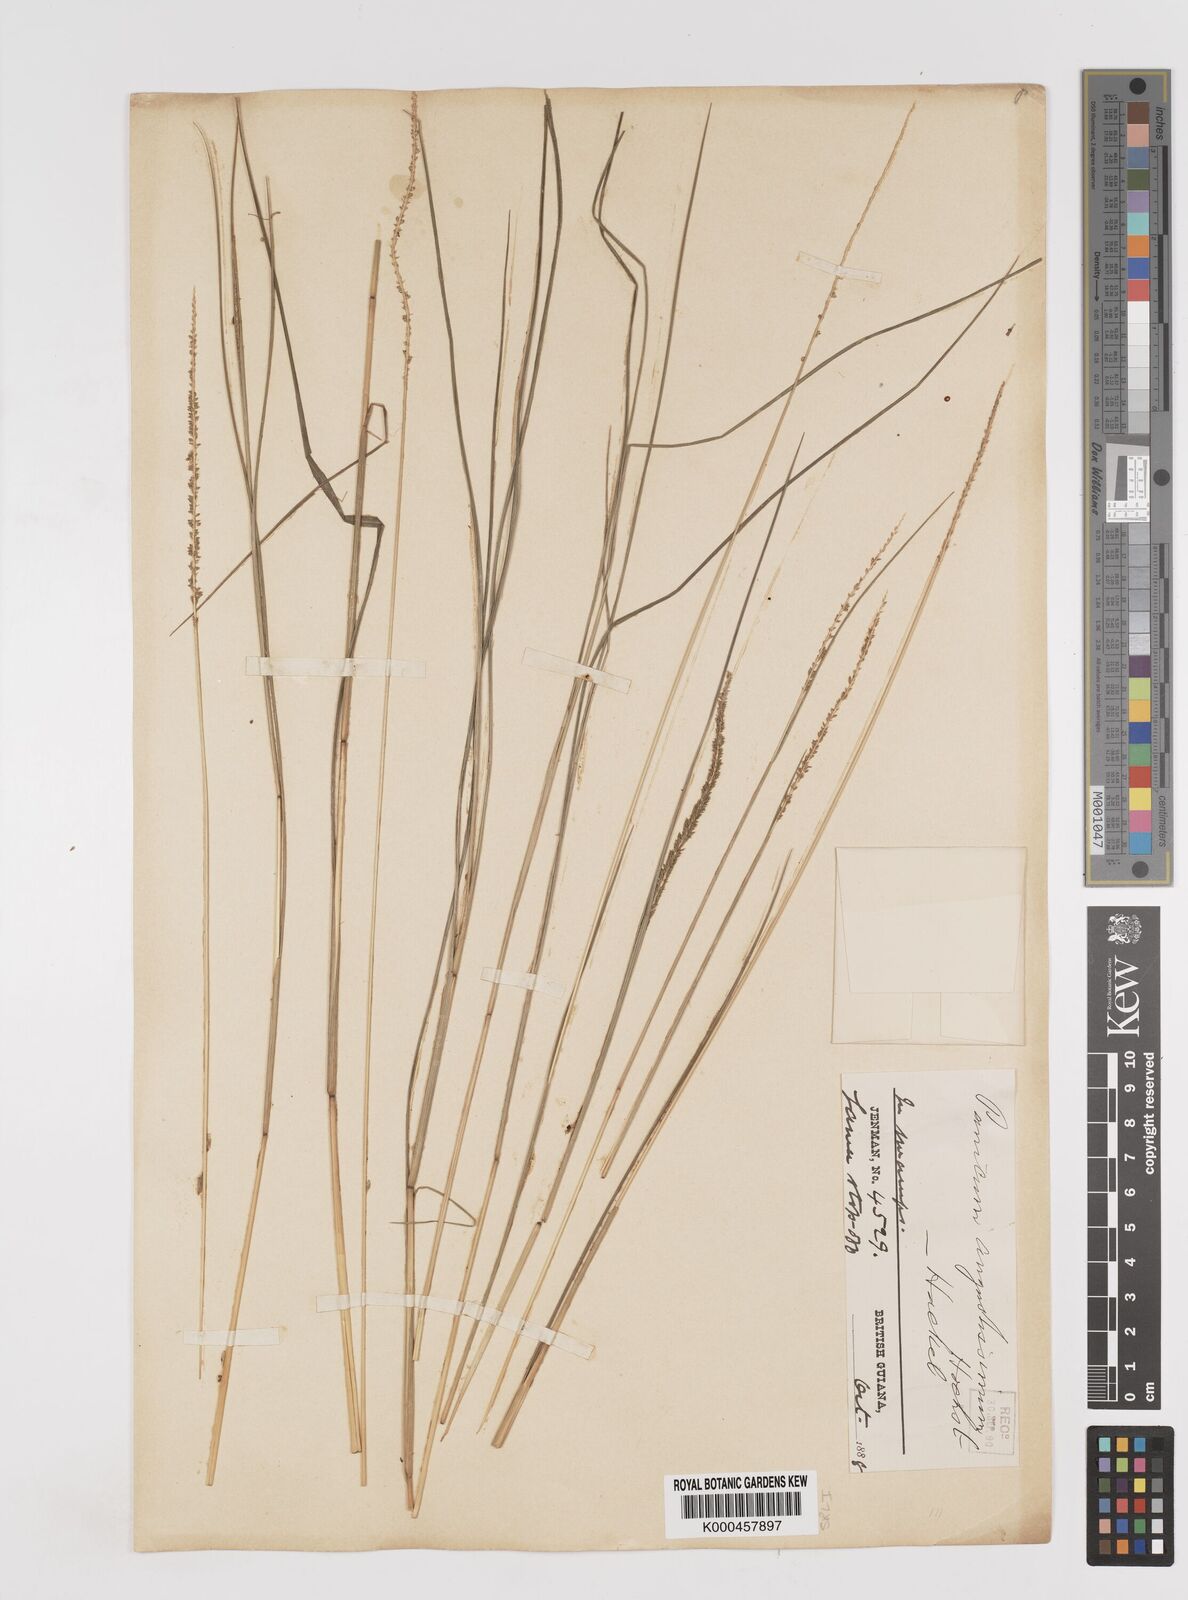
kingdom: Plantae
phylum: Tracheophyta
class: Liliopsida
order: Poales
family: Poaceae
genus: Sacciolepis
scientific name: Sacciolepis angustissima
